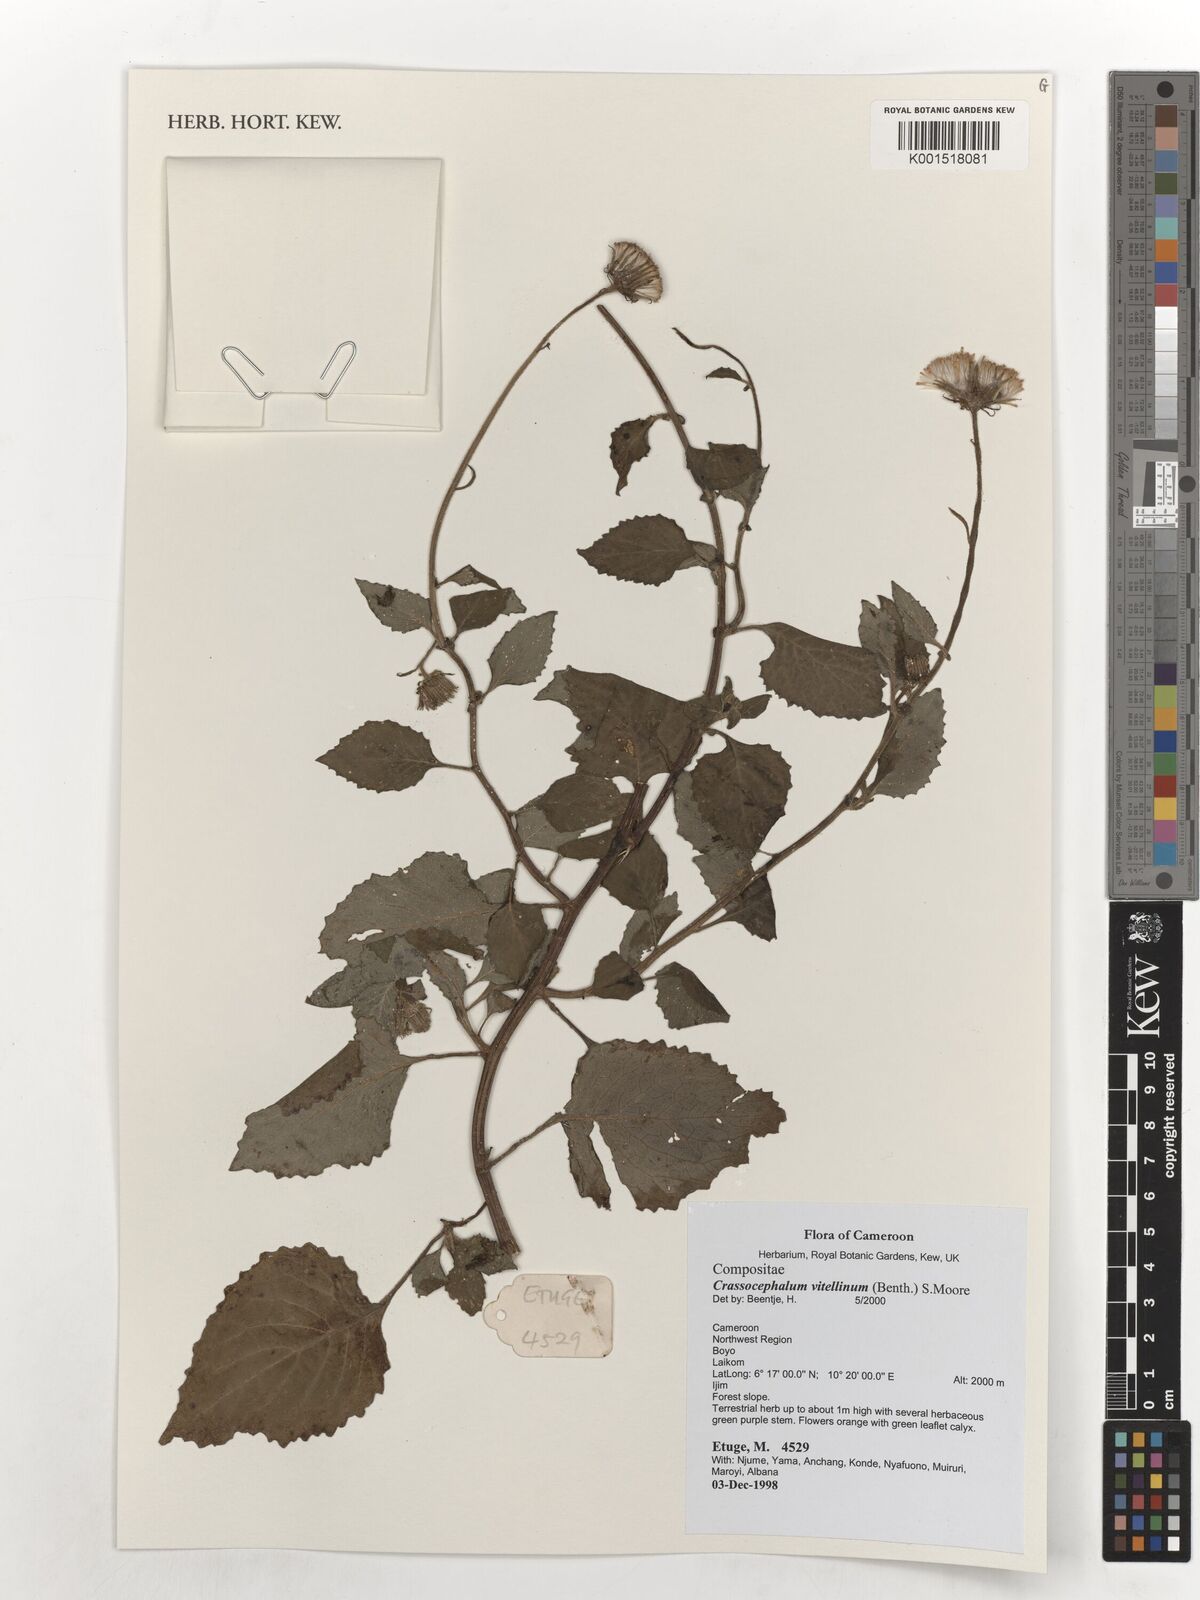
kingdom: Plantae
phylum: Tracheophyta
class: Magnoliopsida
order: Asterales
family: Asteraceae
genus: Crassocephalum
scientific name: Crassocephalum vitellinum
